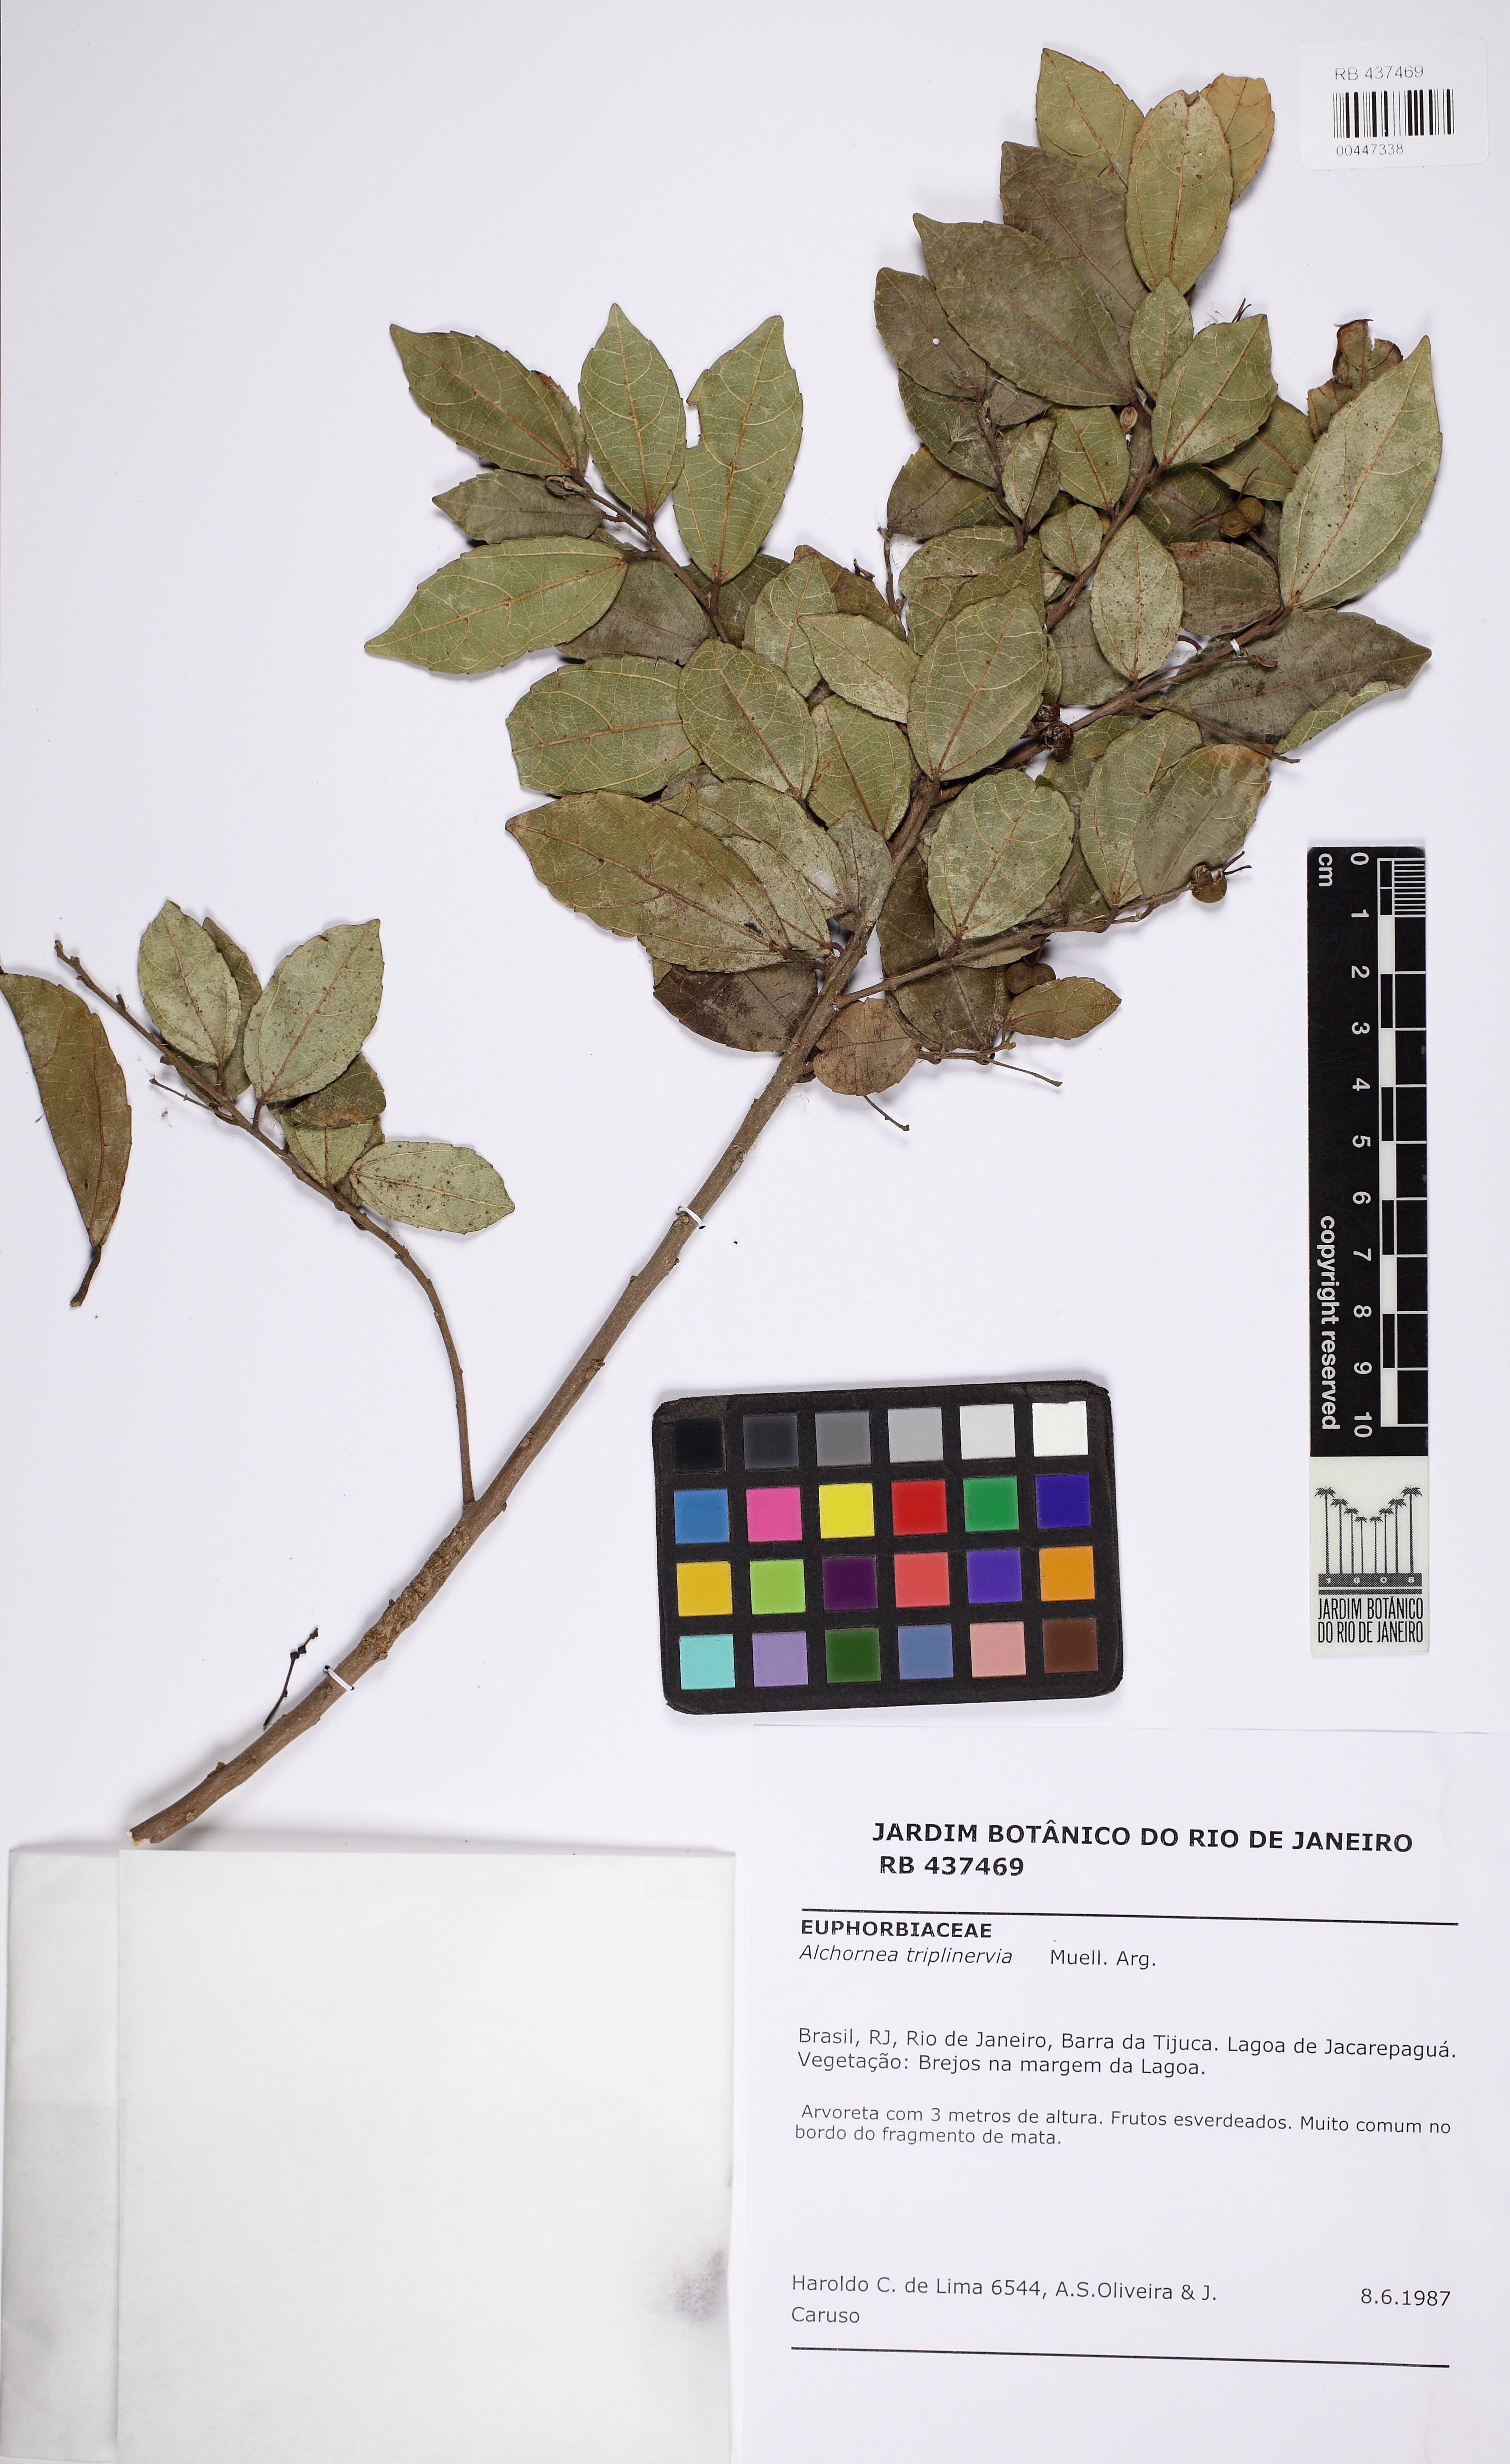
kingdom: Plantae
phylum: Tracheophyta
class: Magnoliopsida
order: Malpighiales
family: Euphorbiaceae
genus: Alchornea
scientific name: Alchornea triplinervia
